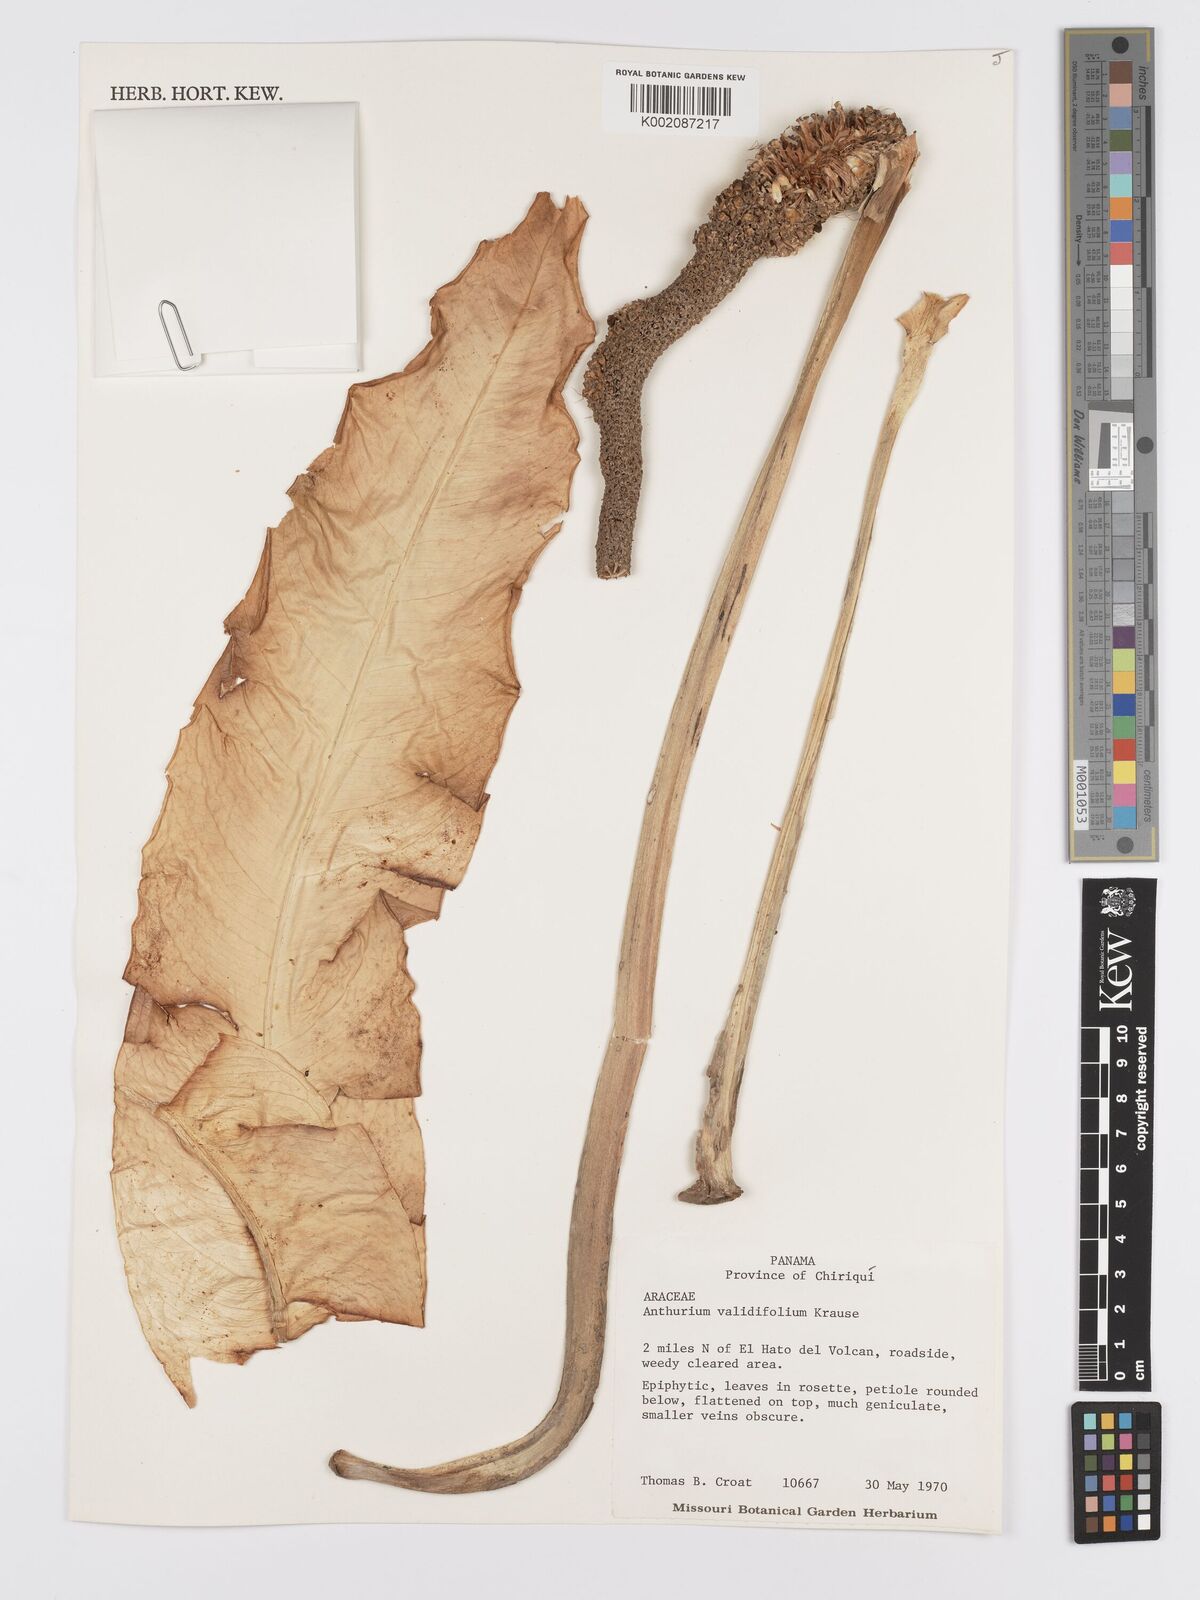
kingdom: Plantae
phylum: Tracheophyta
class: Liliopsida
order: Alismatales
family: Araceae
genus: Anthurium
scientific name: Anthurium validifolium
